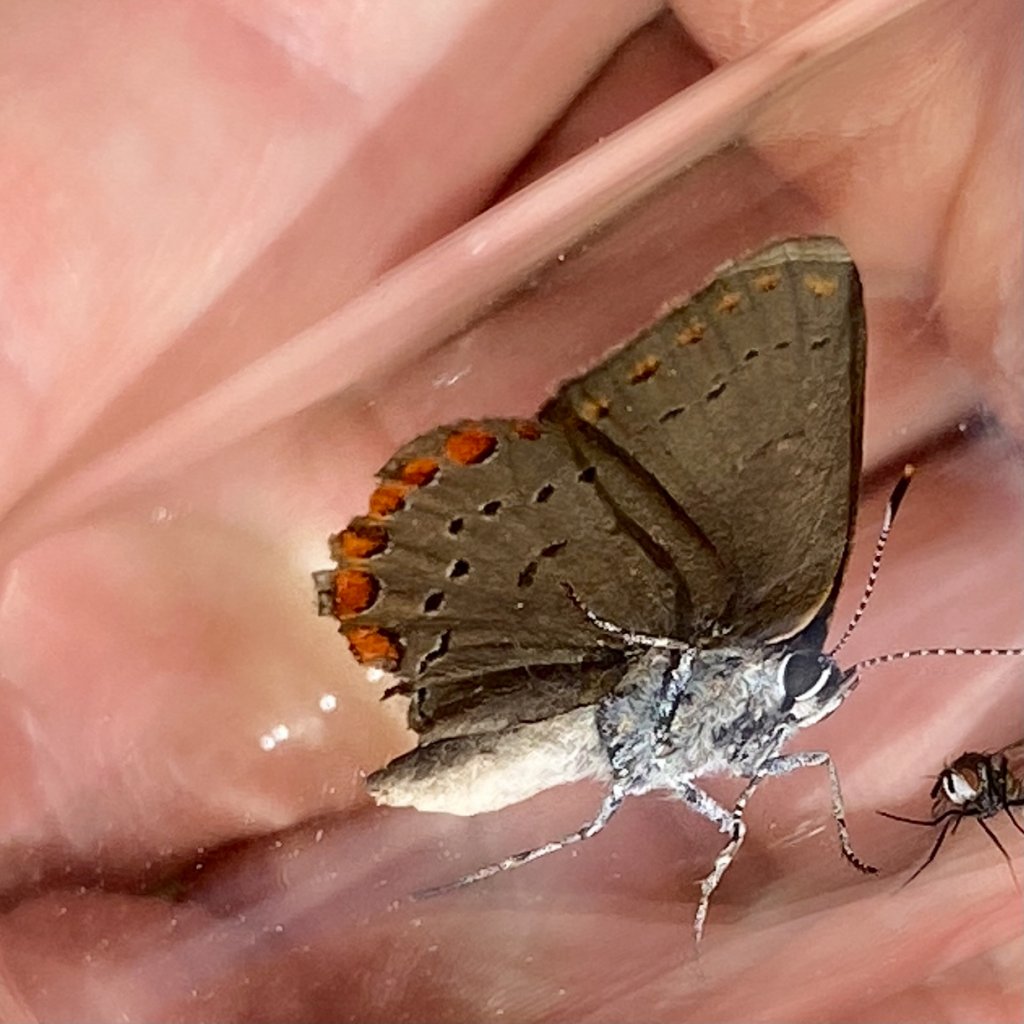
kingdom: Animalia
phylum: Arthropoda
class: Insecta
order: Lepidoptera
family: Lycaenidae
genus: Harkenclenus
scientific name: Harkenclenus titus
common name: Coral Hairstreak
